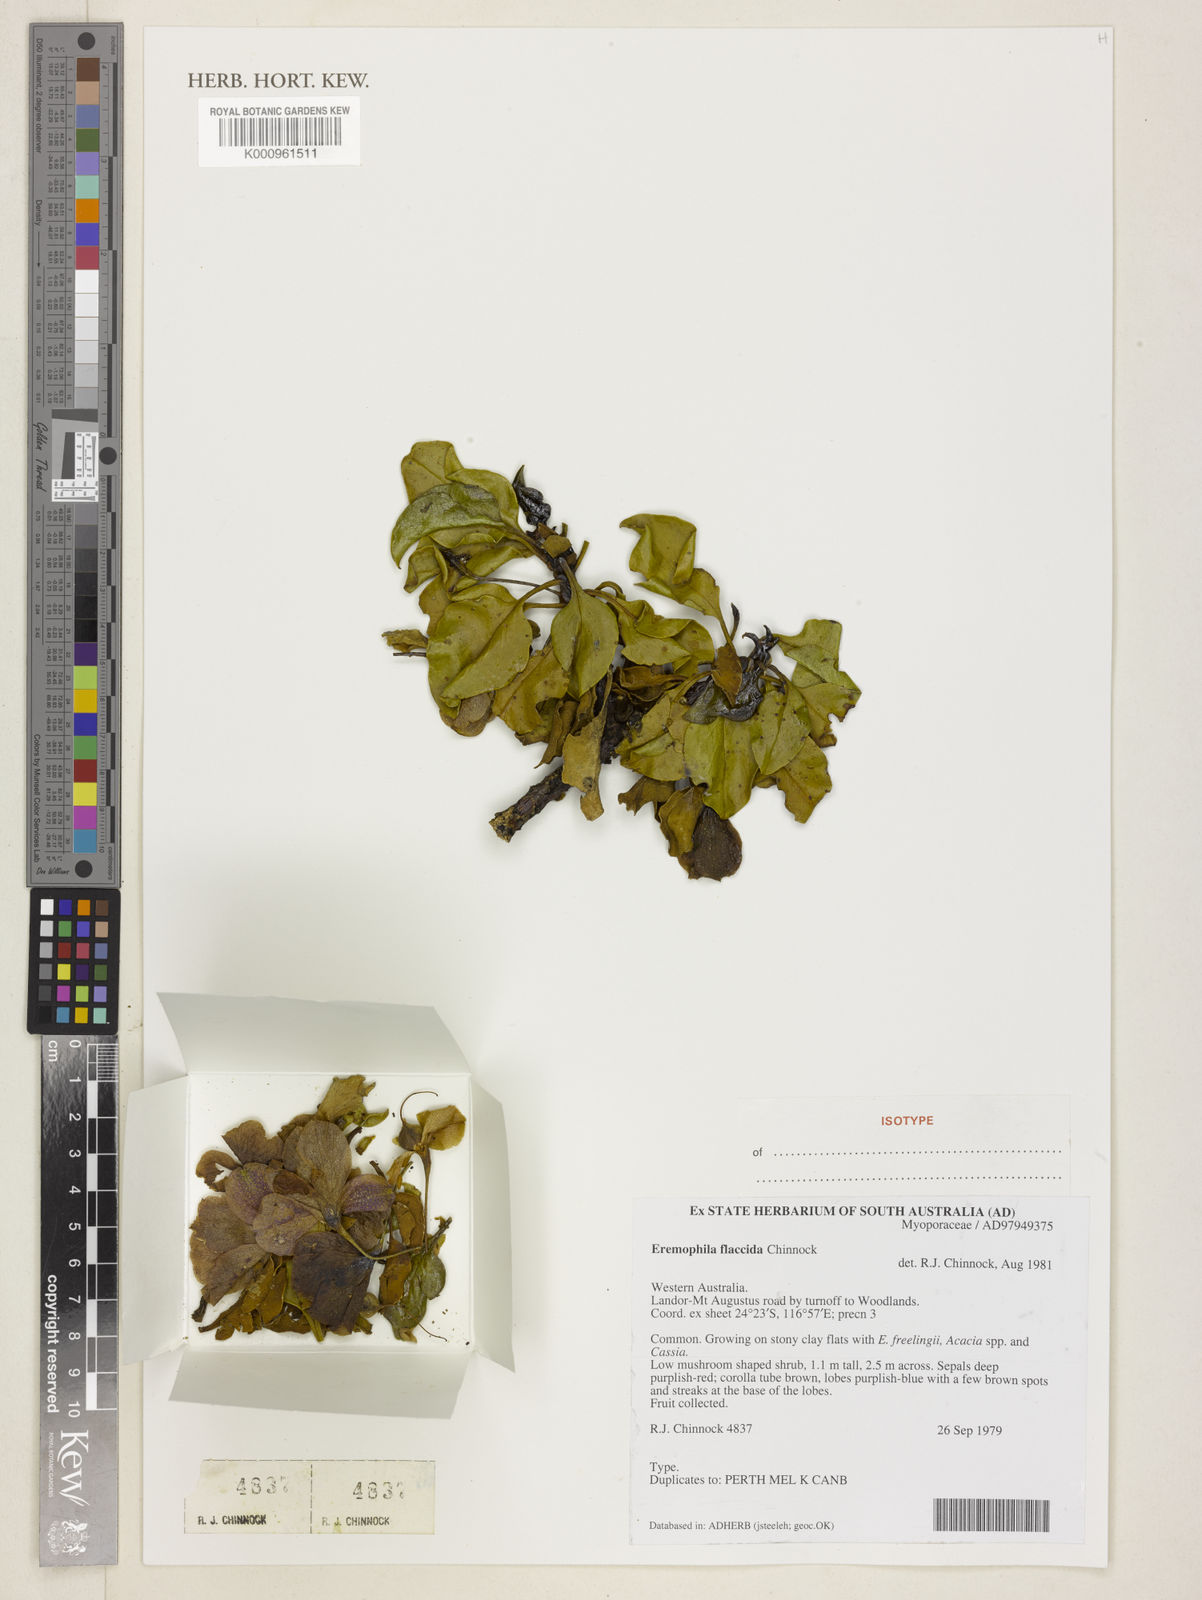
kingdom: Plantae
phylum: Tracheophyta
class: Magnoliopsida
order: Lamiales
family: Scrophulariaceae
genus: Eremophila
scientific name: Eremophila flaccida
